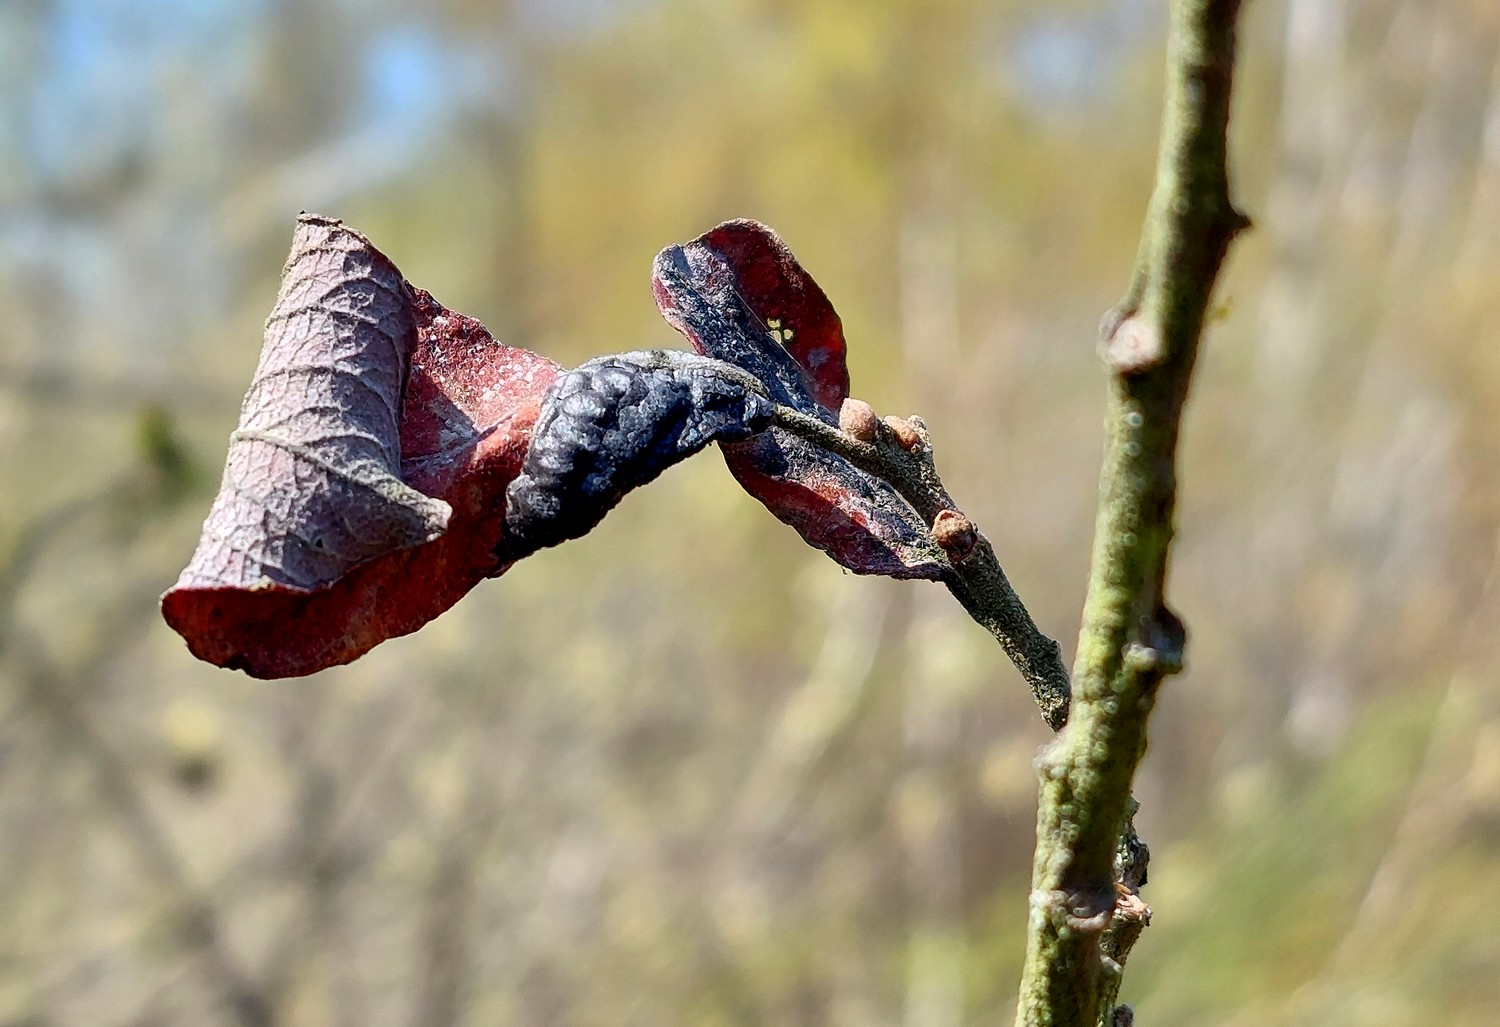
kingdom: Fungi
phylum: Ascomycota
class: Leotiomycetes
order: Rhytismatales
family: Rhytismataceae
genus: Rhytisma
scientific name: Rhytisma salicinum
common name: pile-rynkeplet
